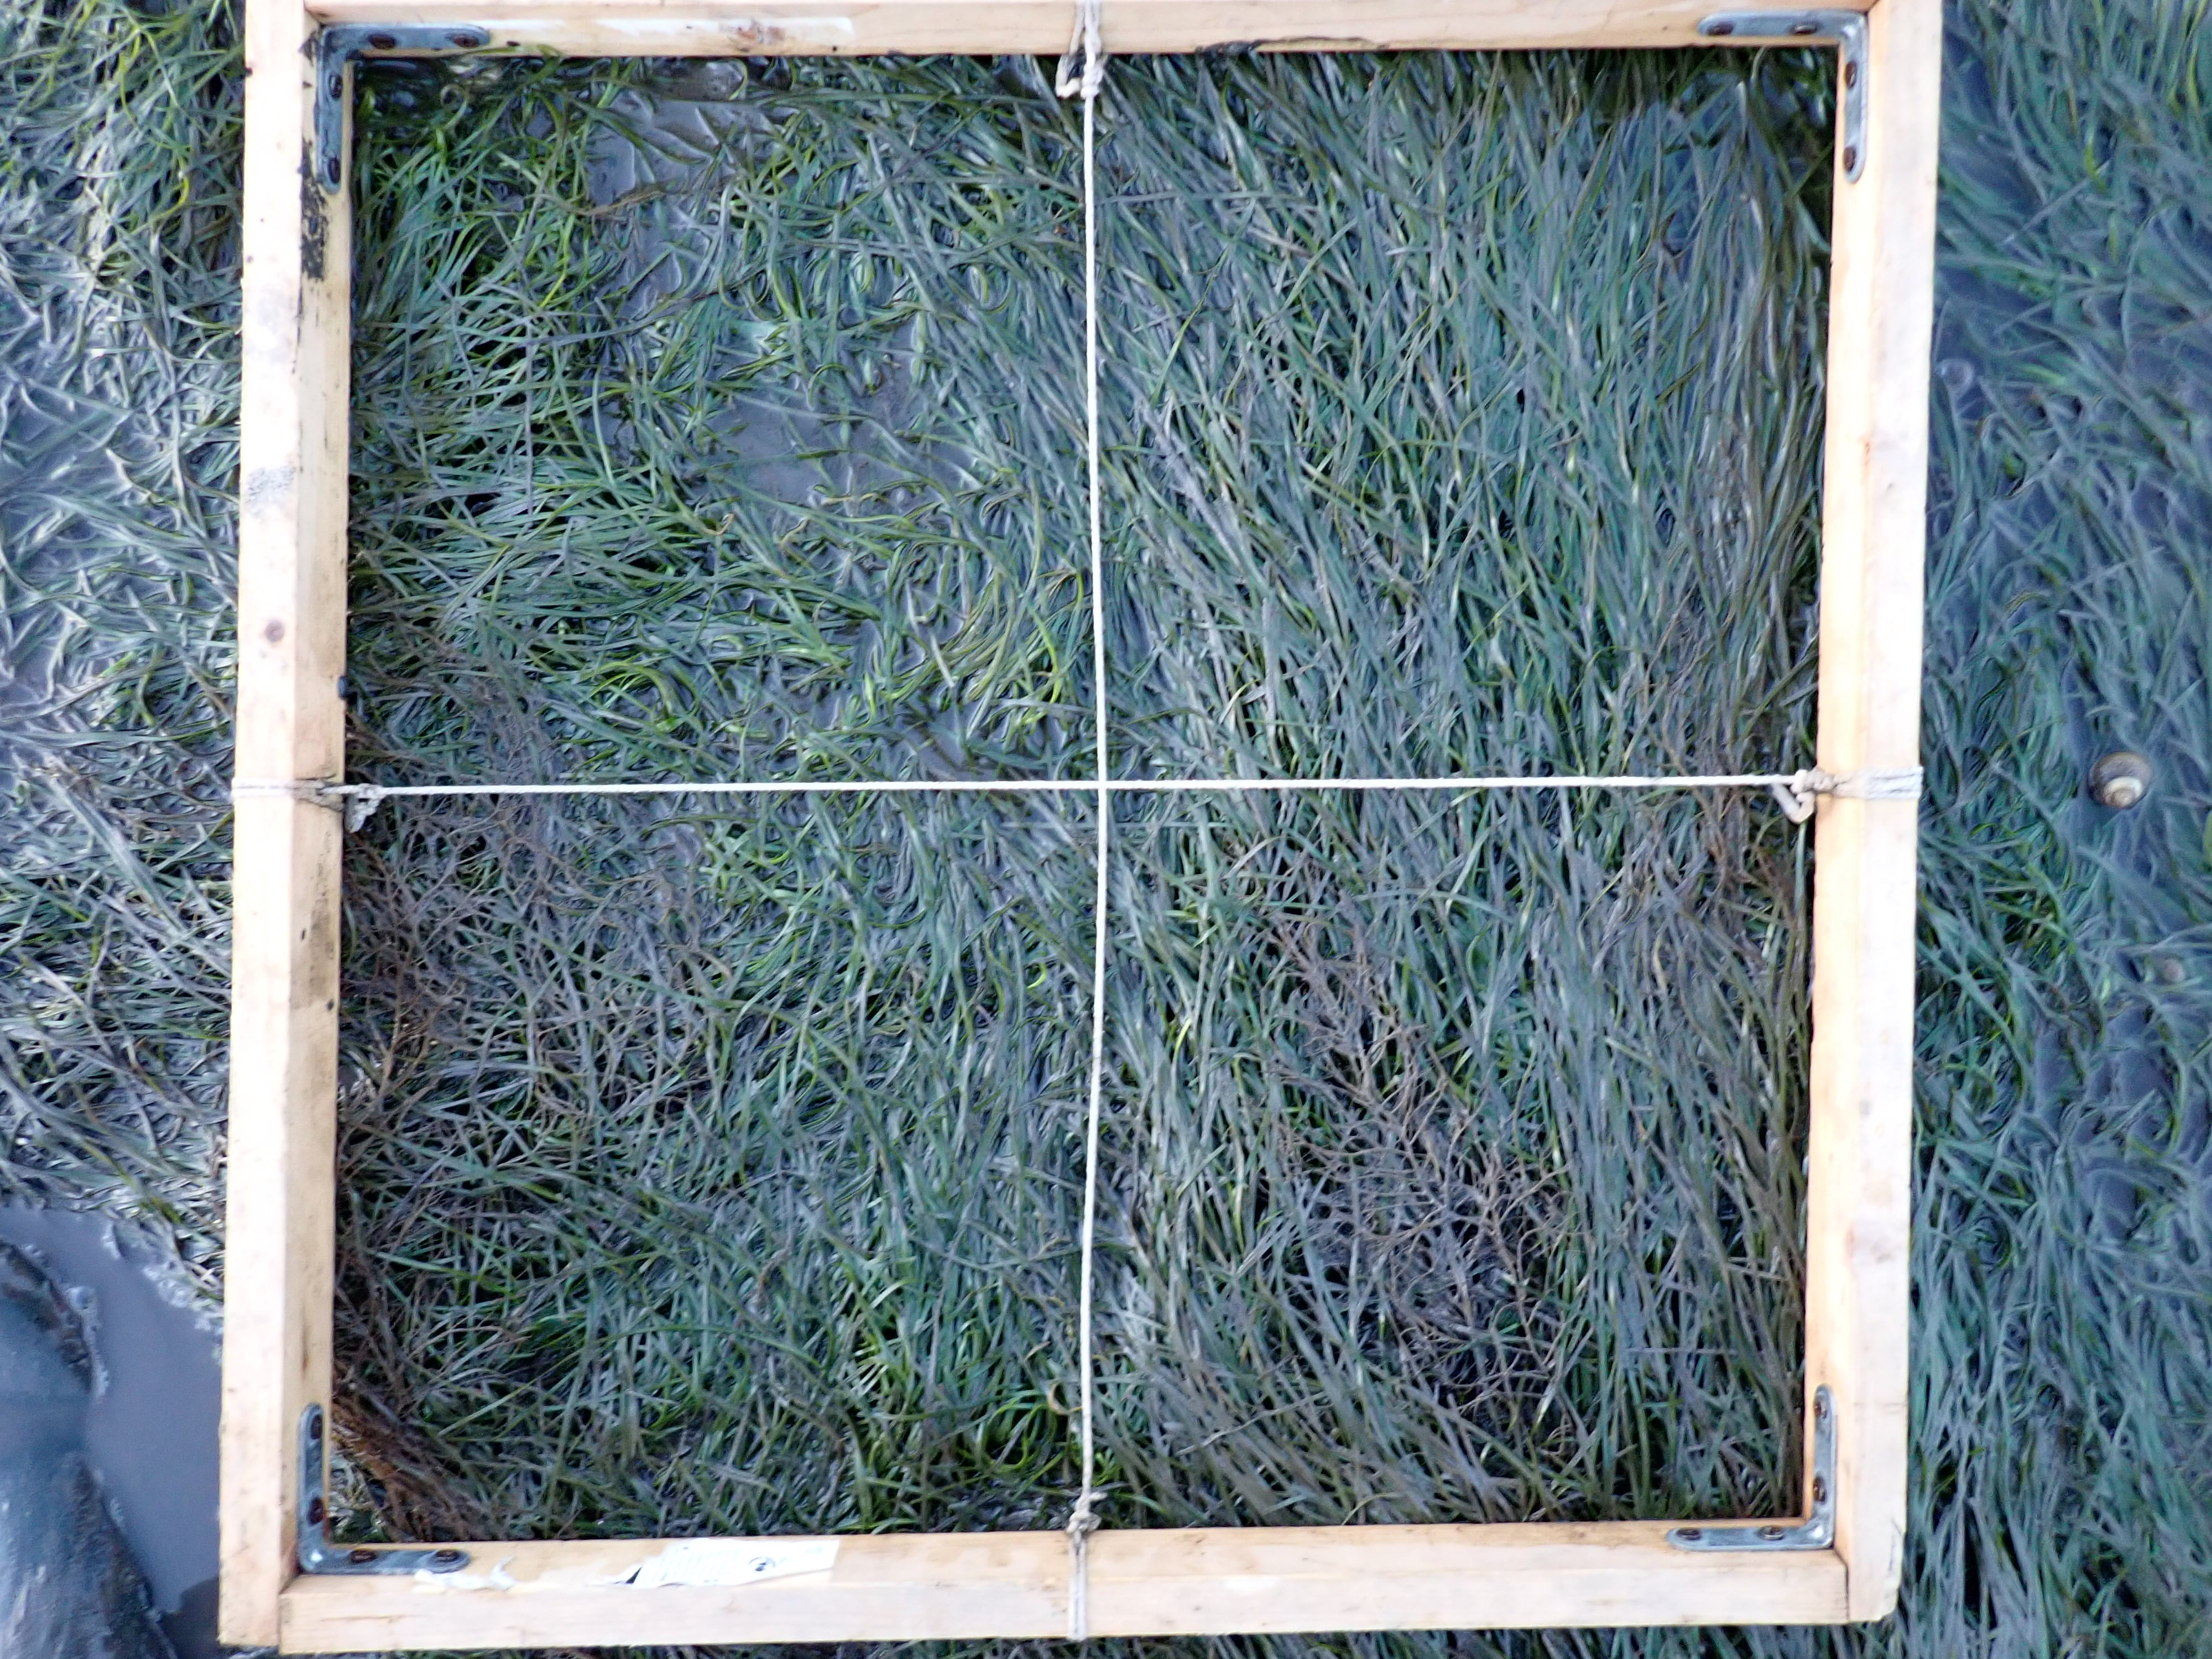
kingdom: Plantae
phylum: Rhodophyta
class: Florideophyceae
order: Gracilariales
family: Gracilariaceae
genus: Gracilaria
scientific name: Gracilaria vermiculophylla
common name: Algae
